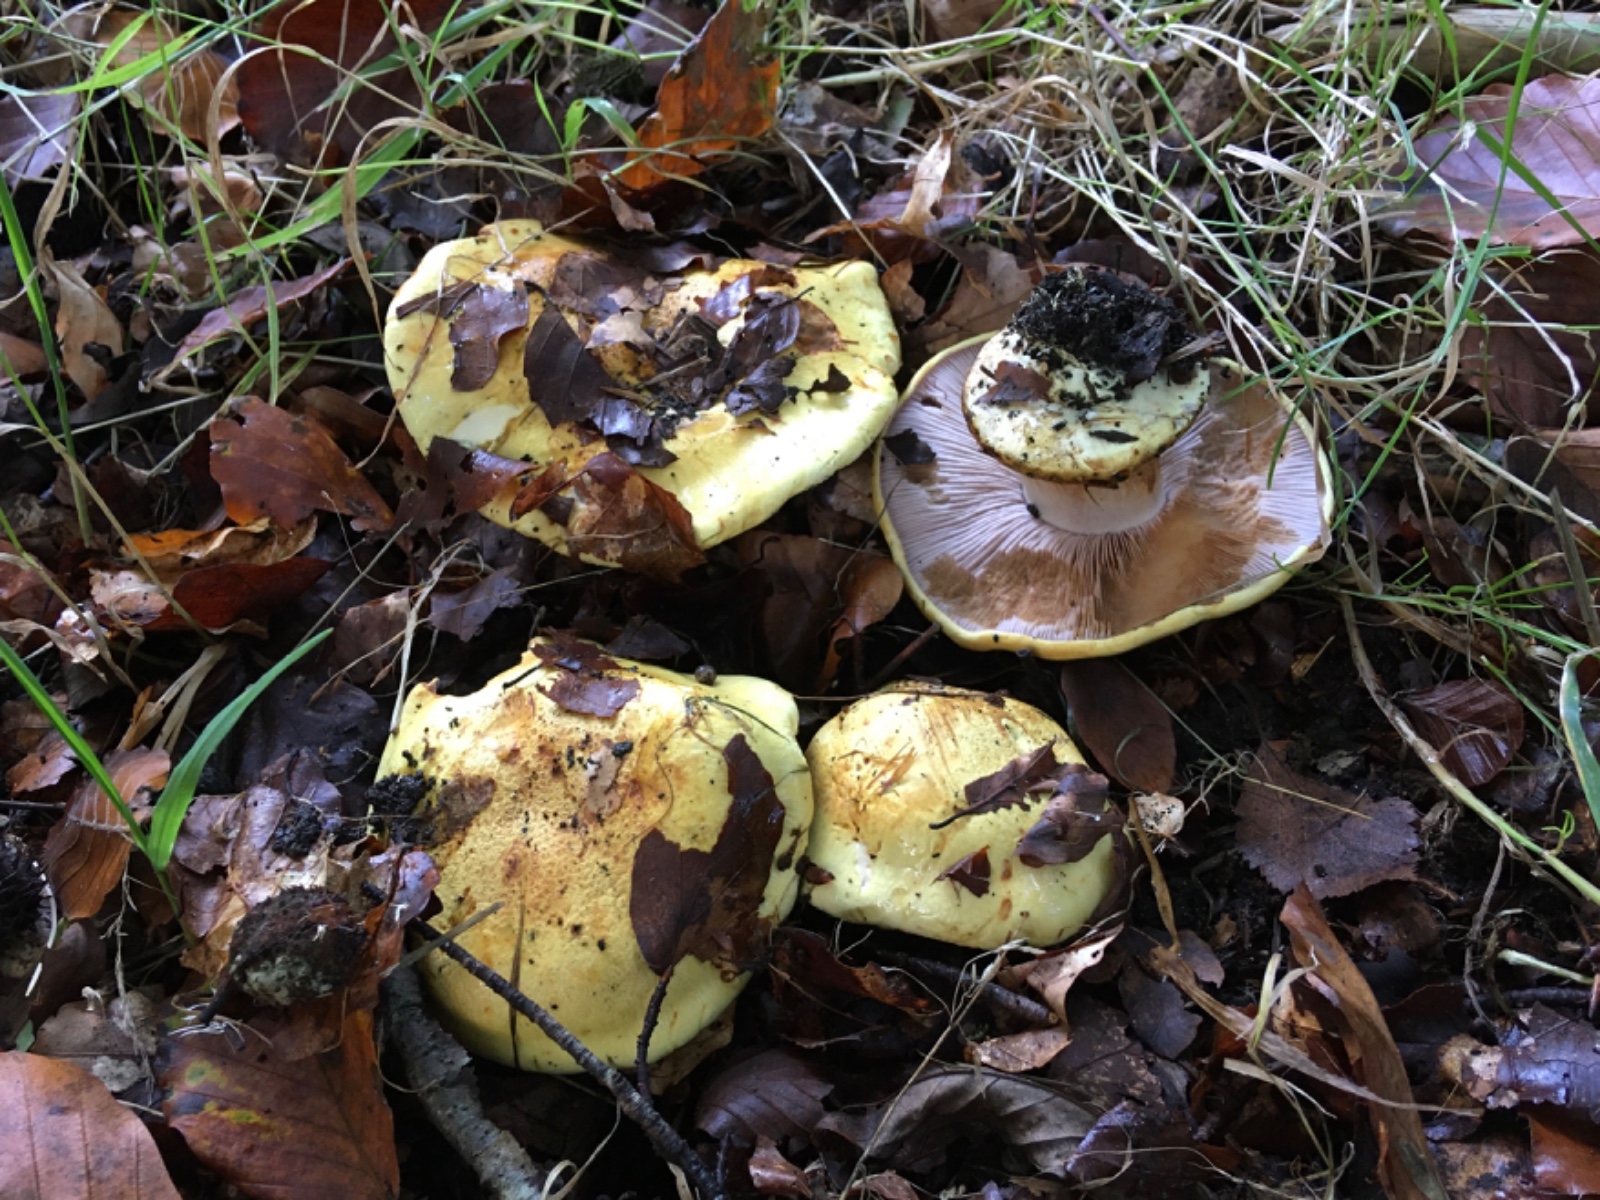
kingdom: Fungi
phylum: Basidiomycota
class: Agaricomycetes
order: Agaricales
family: Cortinariaceae
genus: Calonarius
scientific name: Calonarius callochrous
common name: lillabladet slørhat
